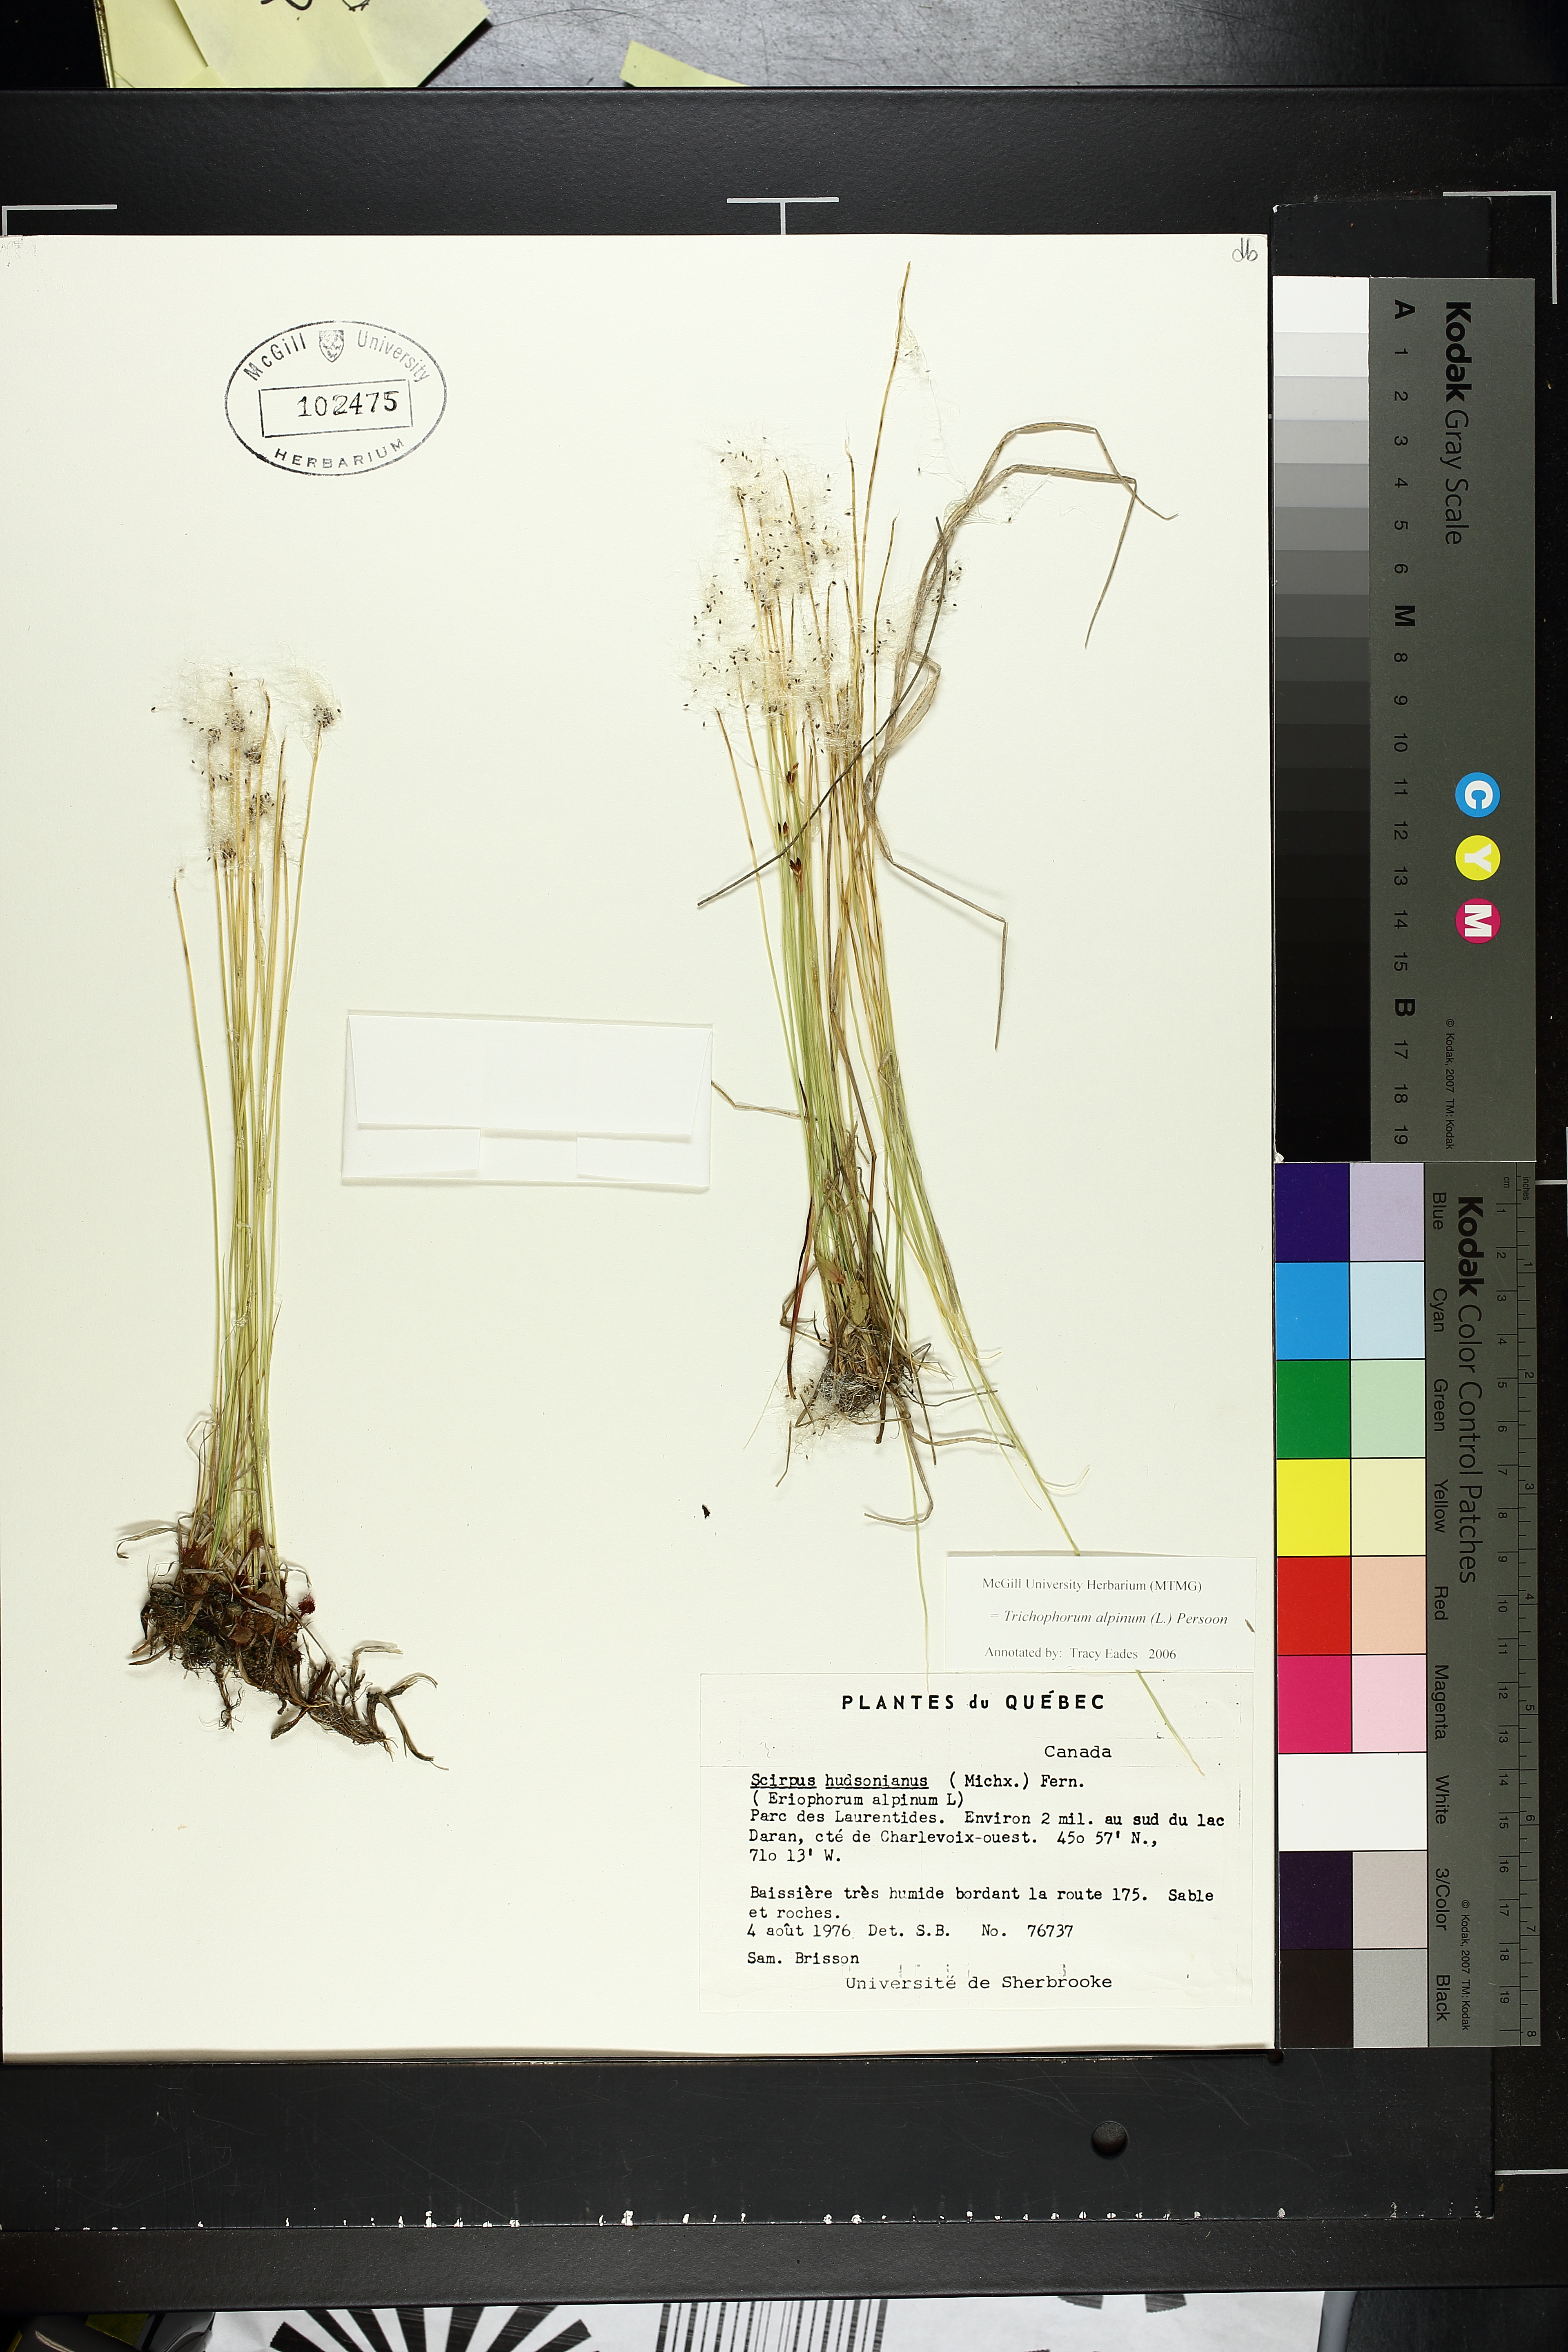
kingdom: Plantae
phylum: Tracheophyta
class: Liliopsida
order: Poales
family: Cyperaceae
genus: Trichophorum
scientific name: Trichophorum alpinum
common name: Alpine bulrush
